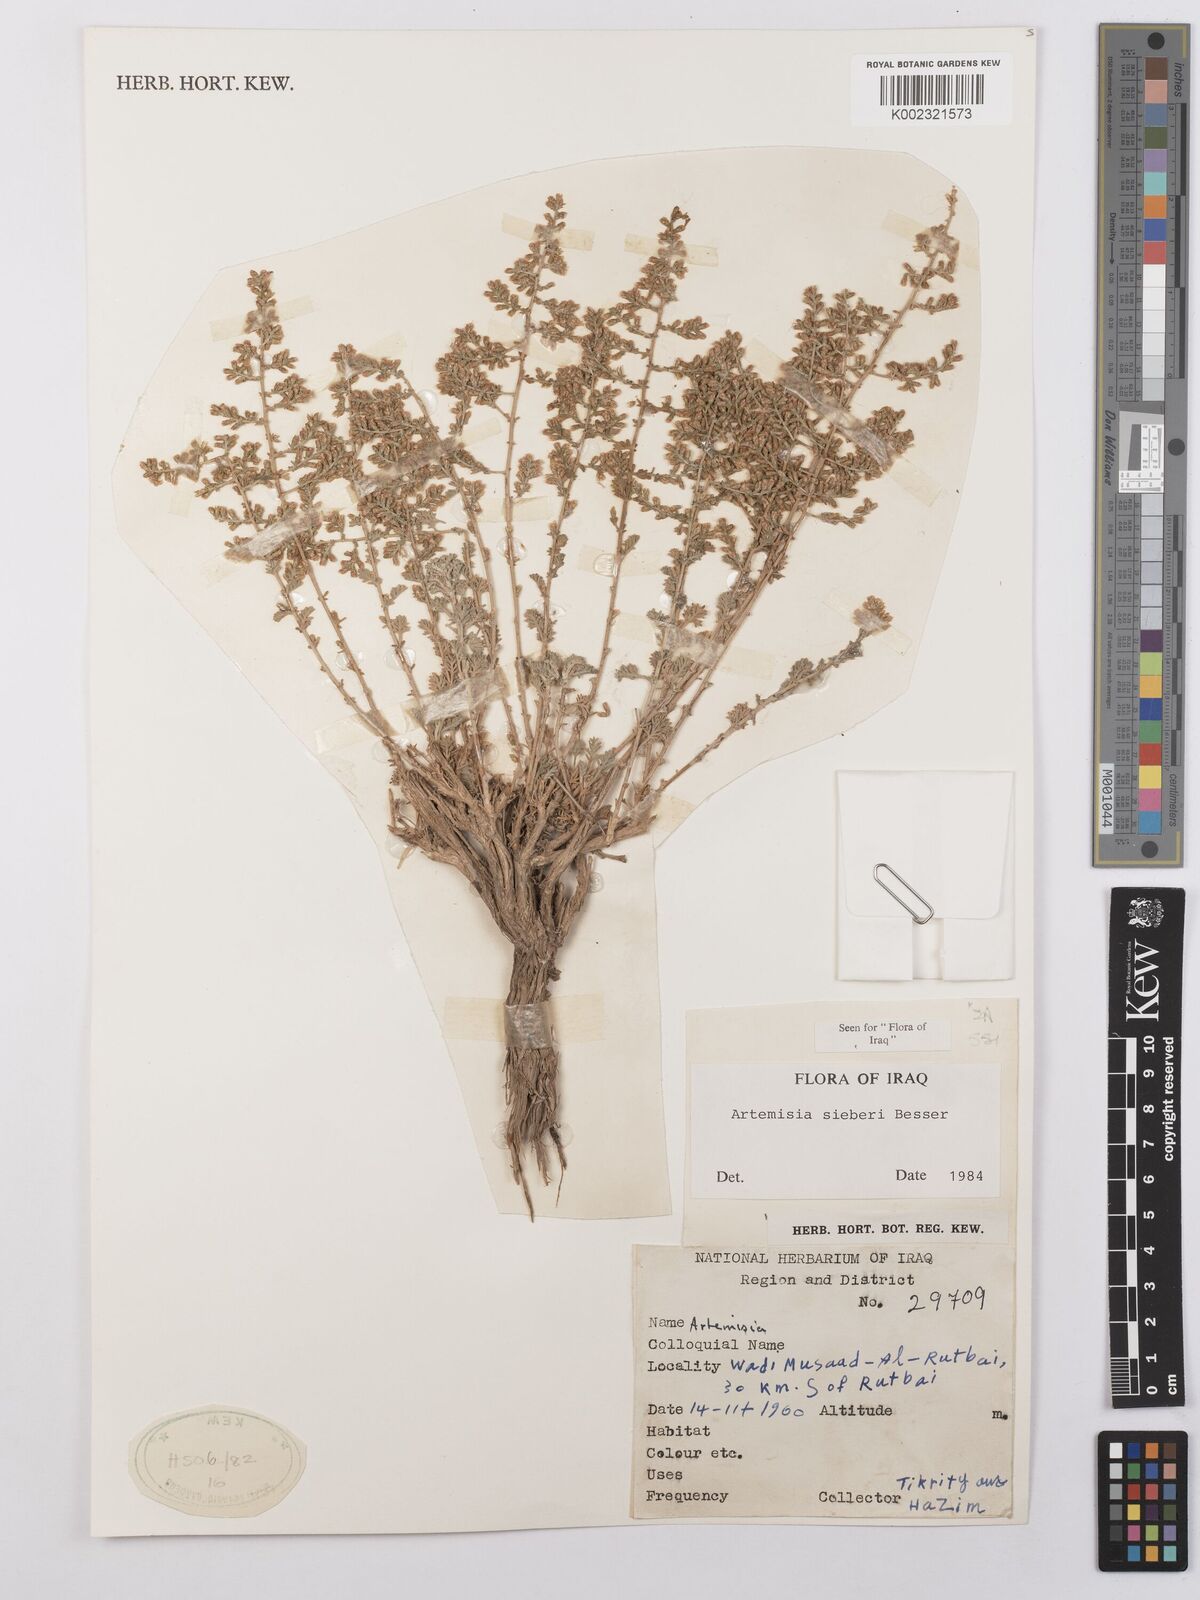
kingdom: Plantae
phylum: Tracheophyta
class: Magnoliopsida
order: Asterales
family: Asteraceae
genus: Artemisia
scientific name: Artemisia sieberi
